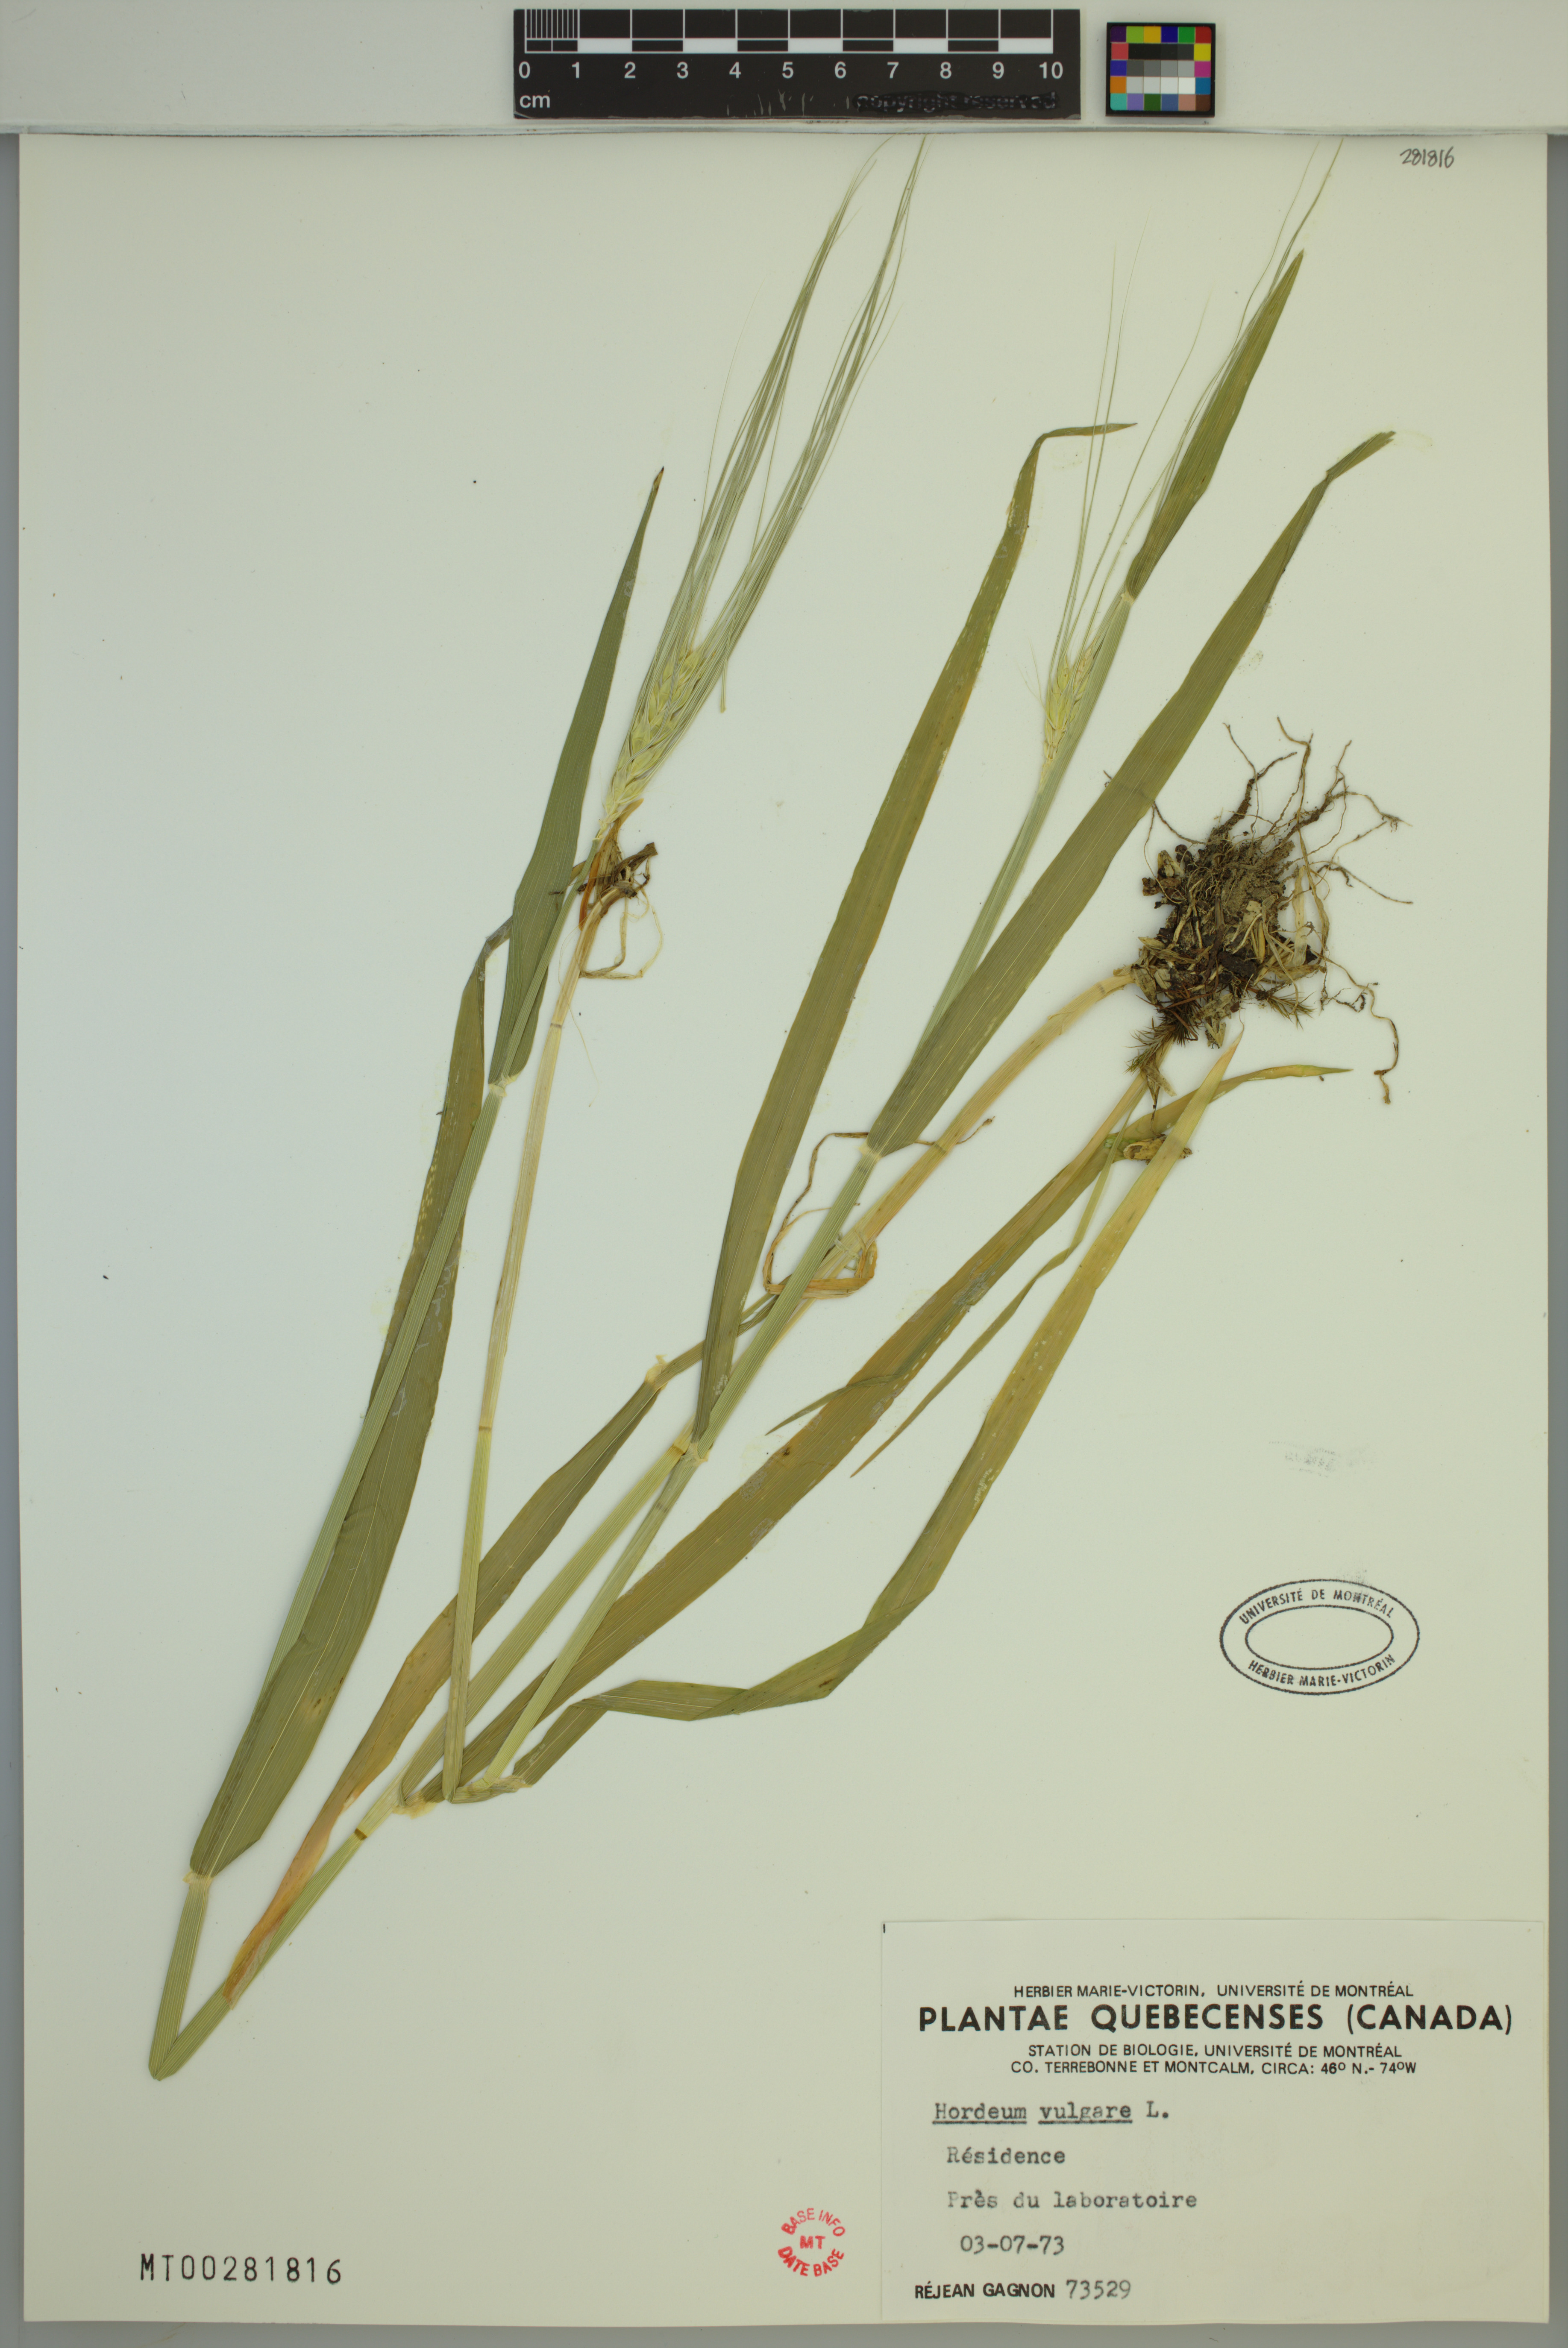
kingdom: Plantae
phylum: Tracheophyta
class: Liliopsida
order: Poales
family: Poaceae
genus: Hordeum
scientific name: Hordeum vulgare
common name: Common barley
